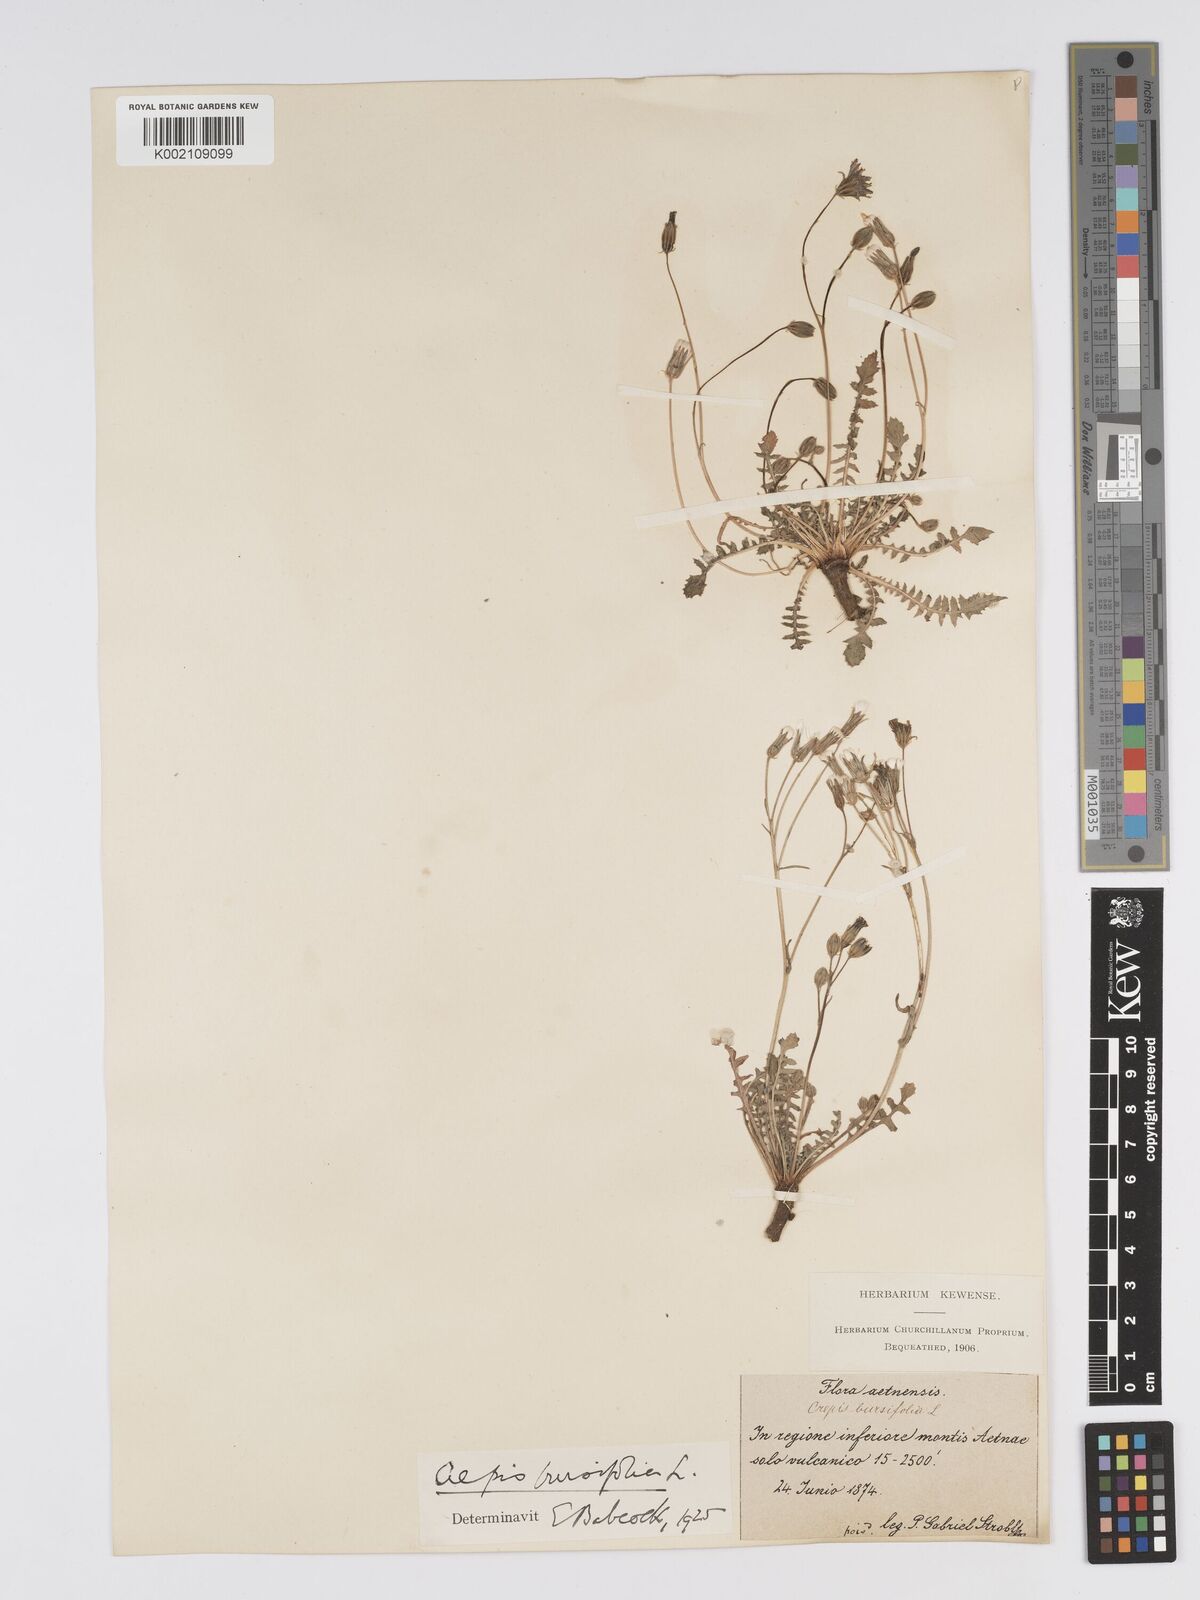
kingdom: Plantae
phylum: Tracheophyta
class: Magnoliopsida
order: Asterales
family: Asteraceae
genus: Crepis
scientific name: Crepis bursifolia
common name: Italian hawksbeard
